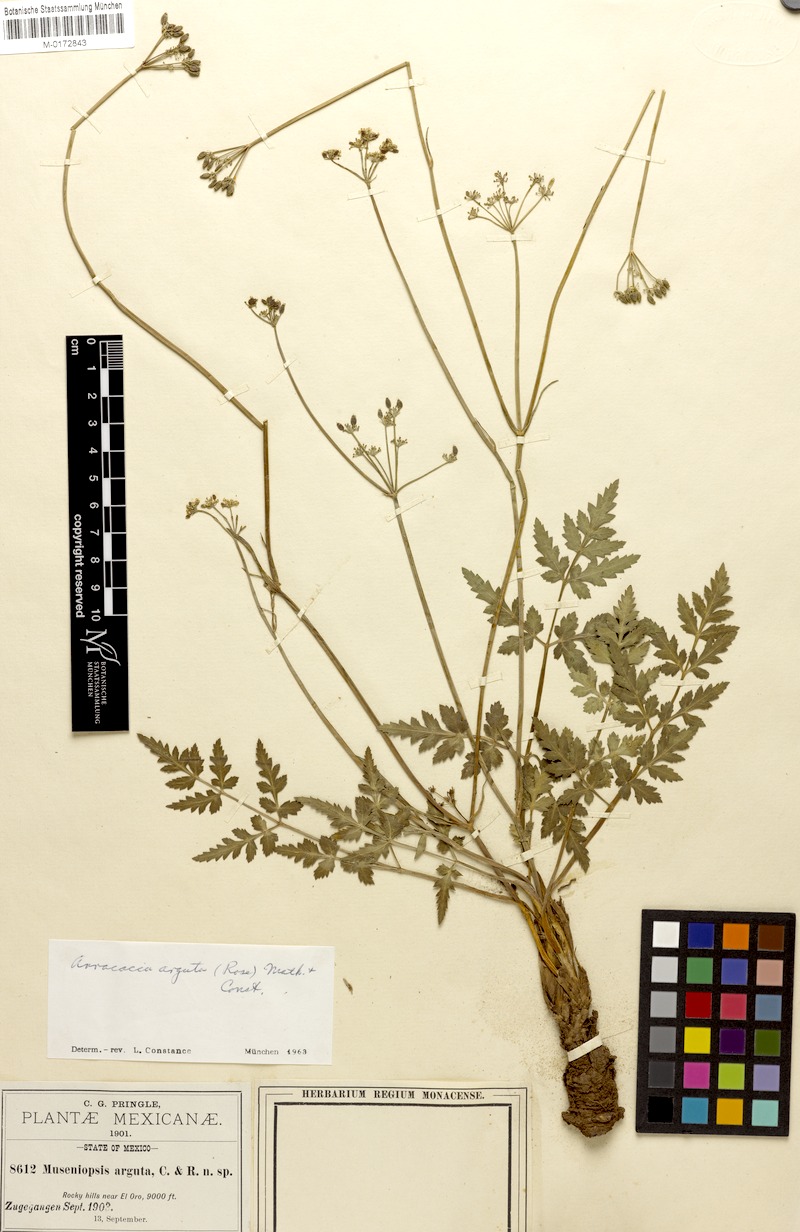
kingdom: Plantae
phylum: Tracheophyta
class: Magnoliopsida
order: Apiales
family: Apiaceae
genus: Tauschia
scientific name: Tauschia drudeophytoides
